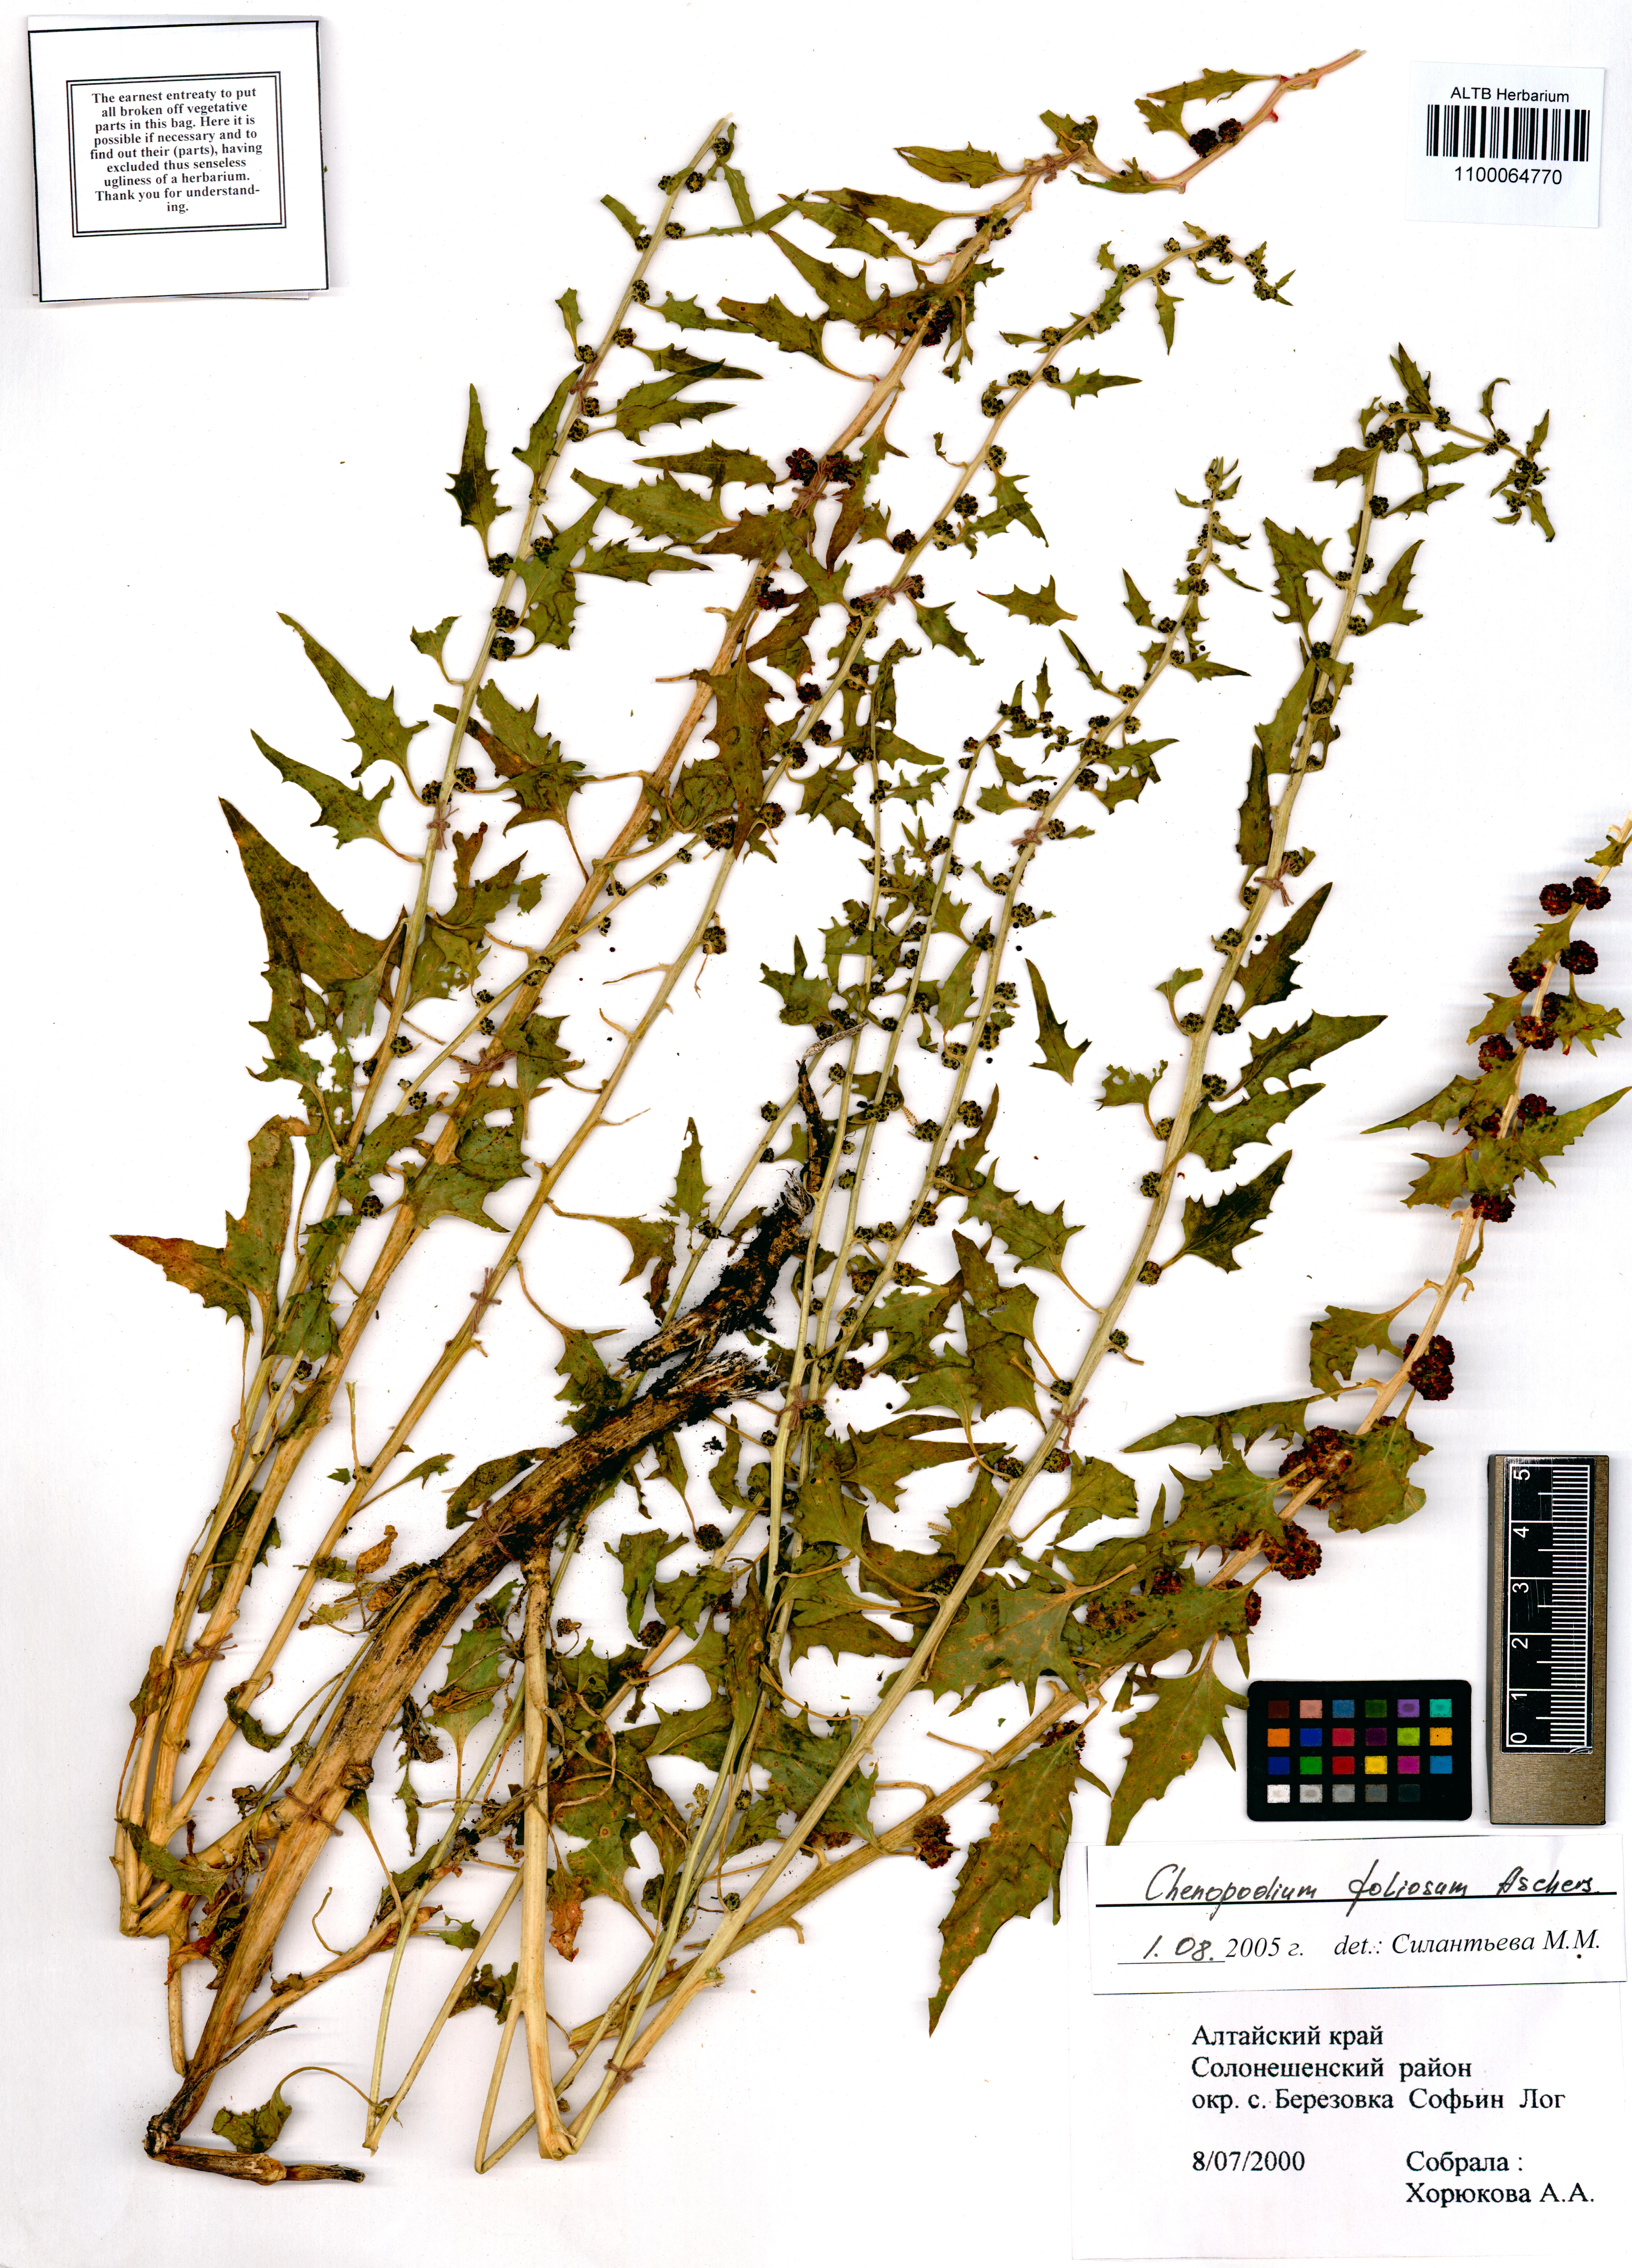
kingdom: Plantae
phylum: Tracheophyta
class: Magnoliopsida
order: Caryophyllales
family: Amaranthaceae
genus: Blitum
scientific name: Blitum virgatum
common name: Strawberry goosefoot
